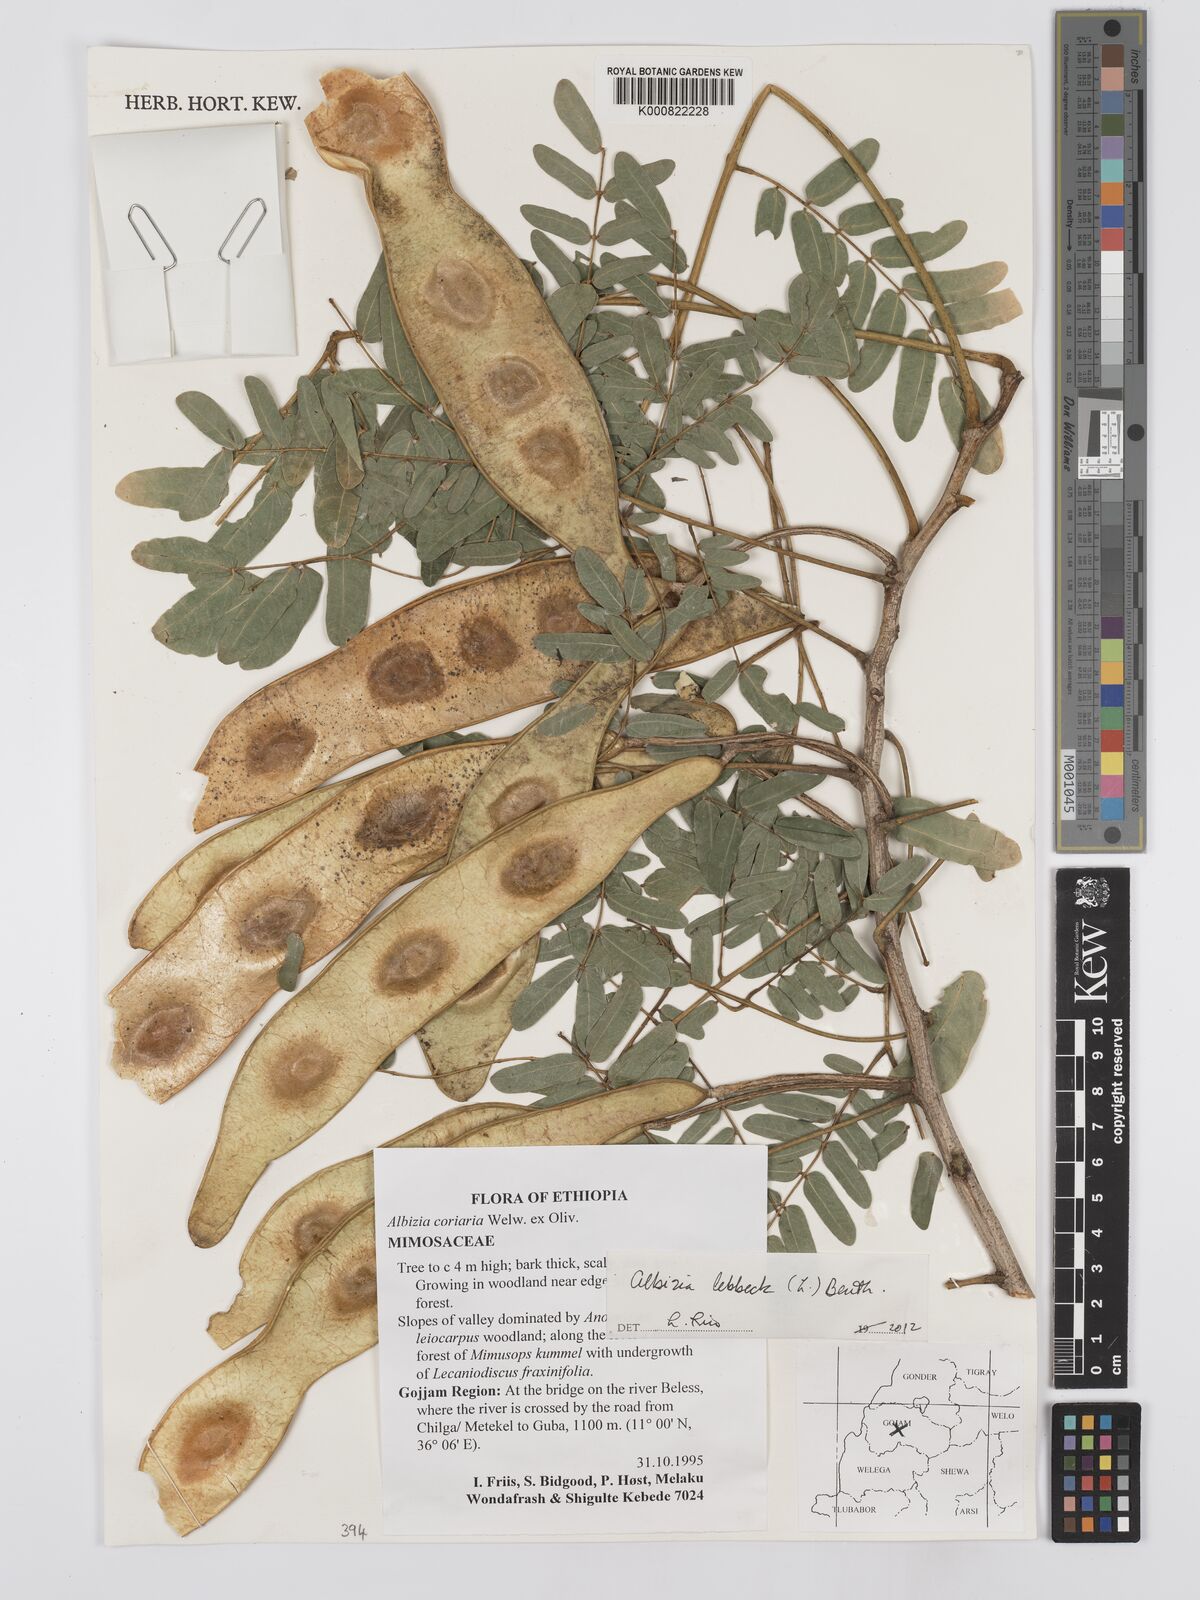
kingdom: Plantae
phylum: Tracheophyta
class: Magnoliopsida
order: Fabales
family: Fabaceae
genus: Albizia
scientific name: Albizia lebbeck
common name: Woman's tongue
